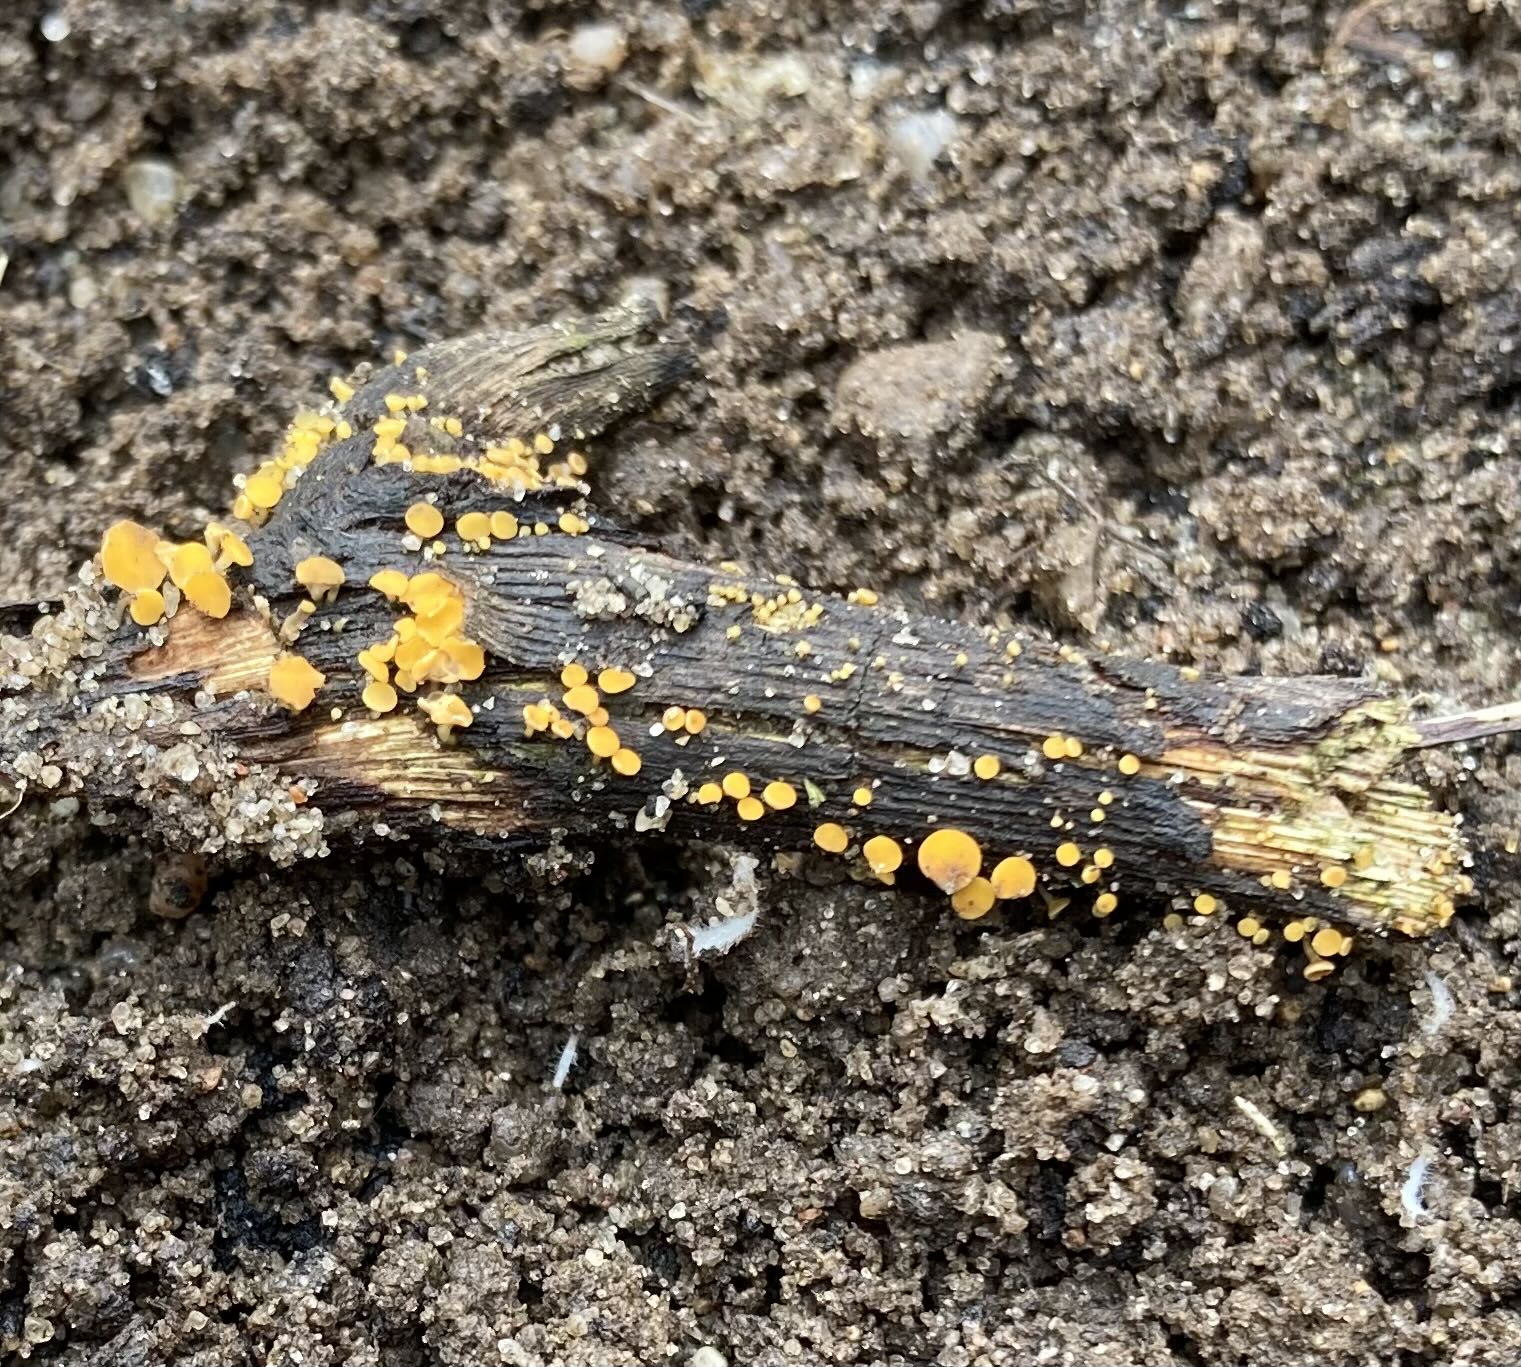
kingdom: Fungi
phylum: Ascomycota
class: Leotiomycetes
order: Helotiales
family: Helotiaceae
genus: Hymenoscyphus
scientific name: Hymenoscyphus
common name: stilkskive
